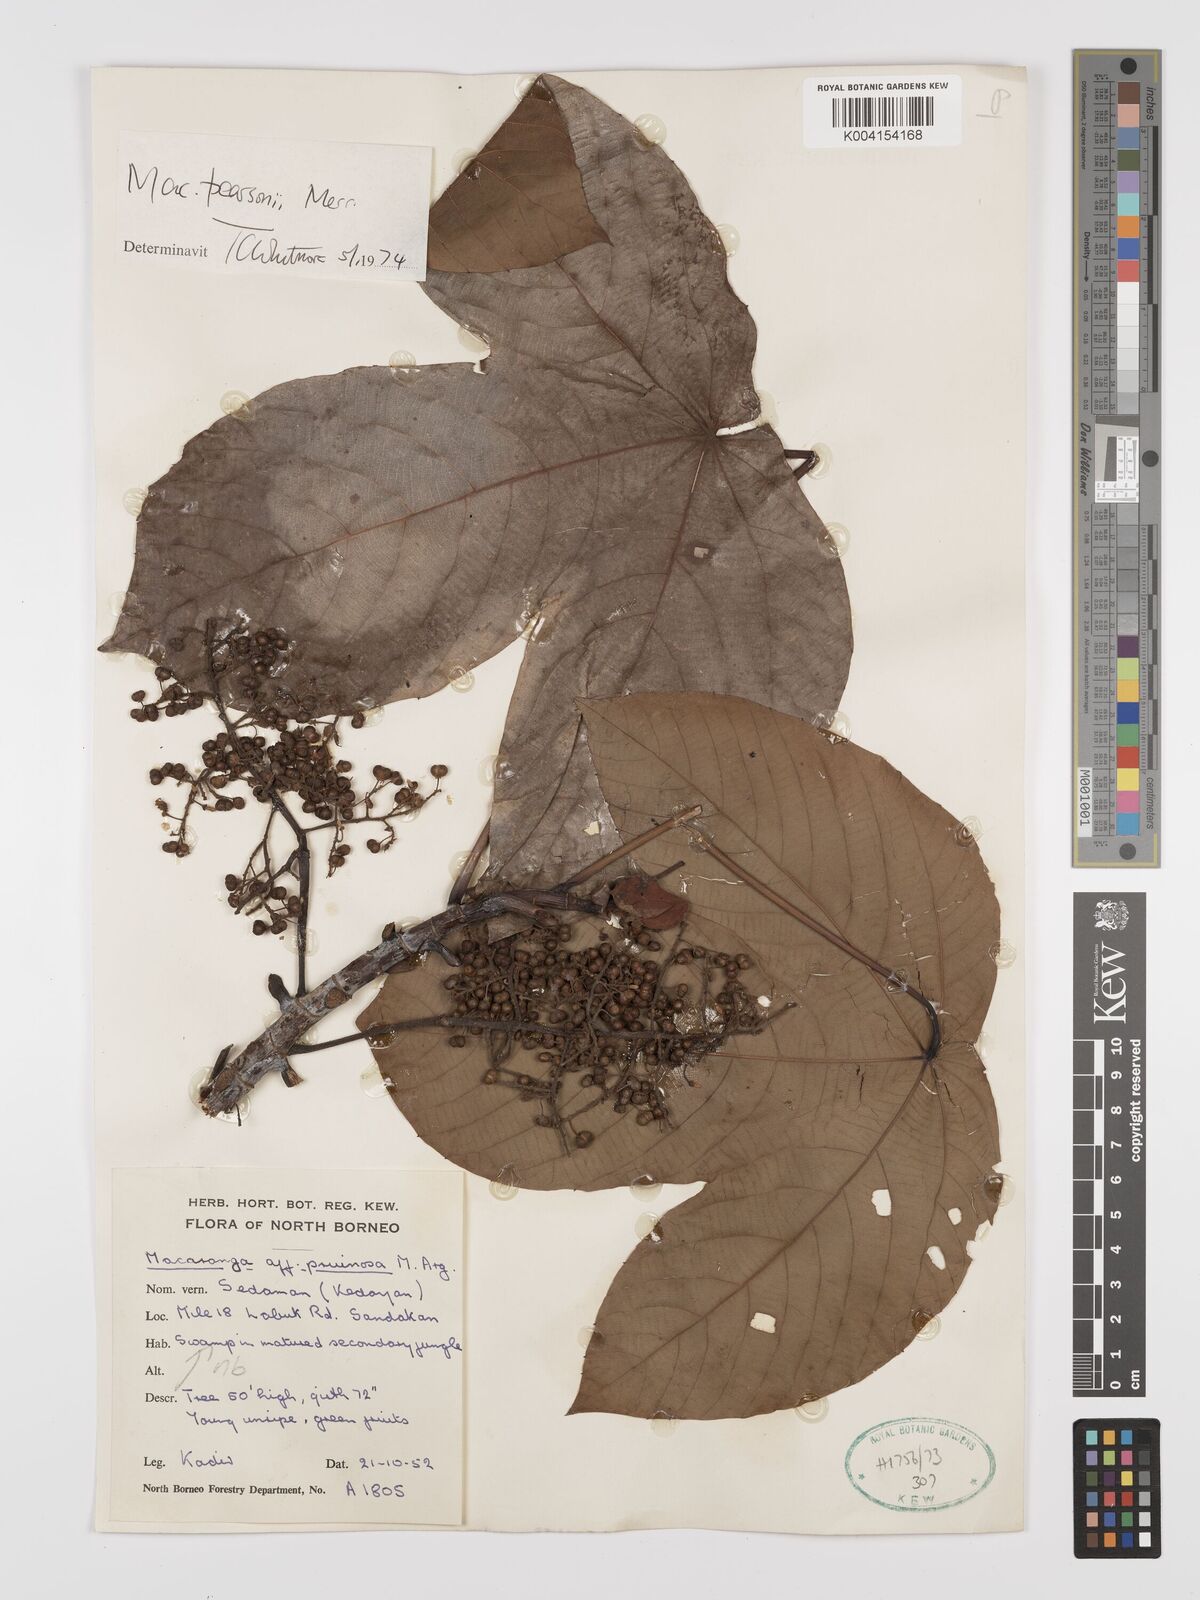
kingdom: Plantae
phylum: Tracheophyta
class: Magnoliopsida
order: Malpighiales
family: Euphorbiaceae
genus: Macaranga
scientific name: Macaranga pearsonii
